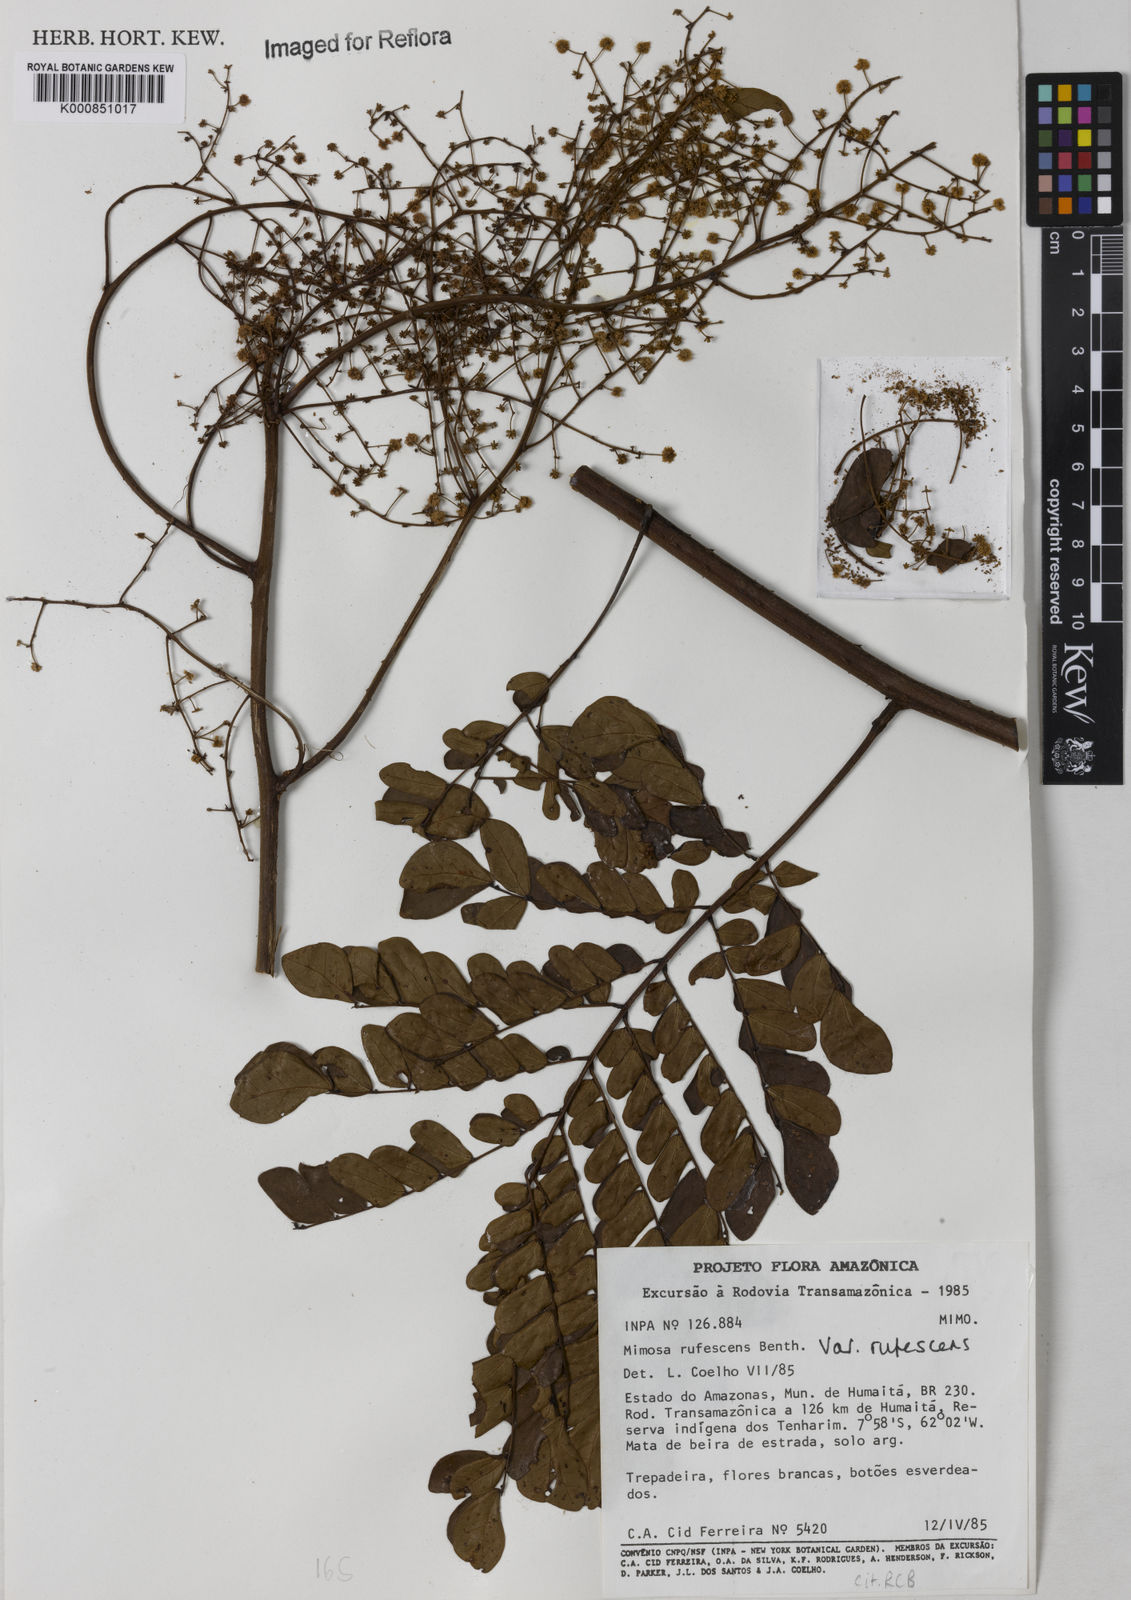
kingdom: Plantae
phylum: Tracheophyta
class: Magnoliopsida
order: Fabales
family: Fabaceae
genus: Mimosa
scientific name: Mimosa rufescens
